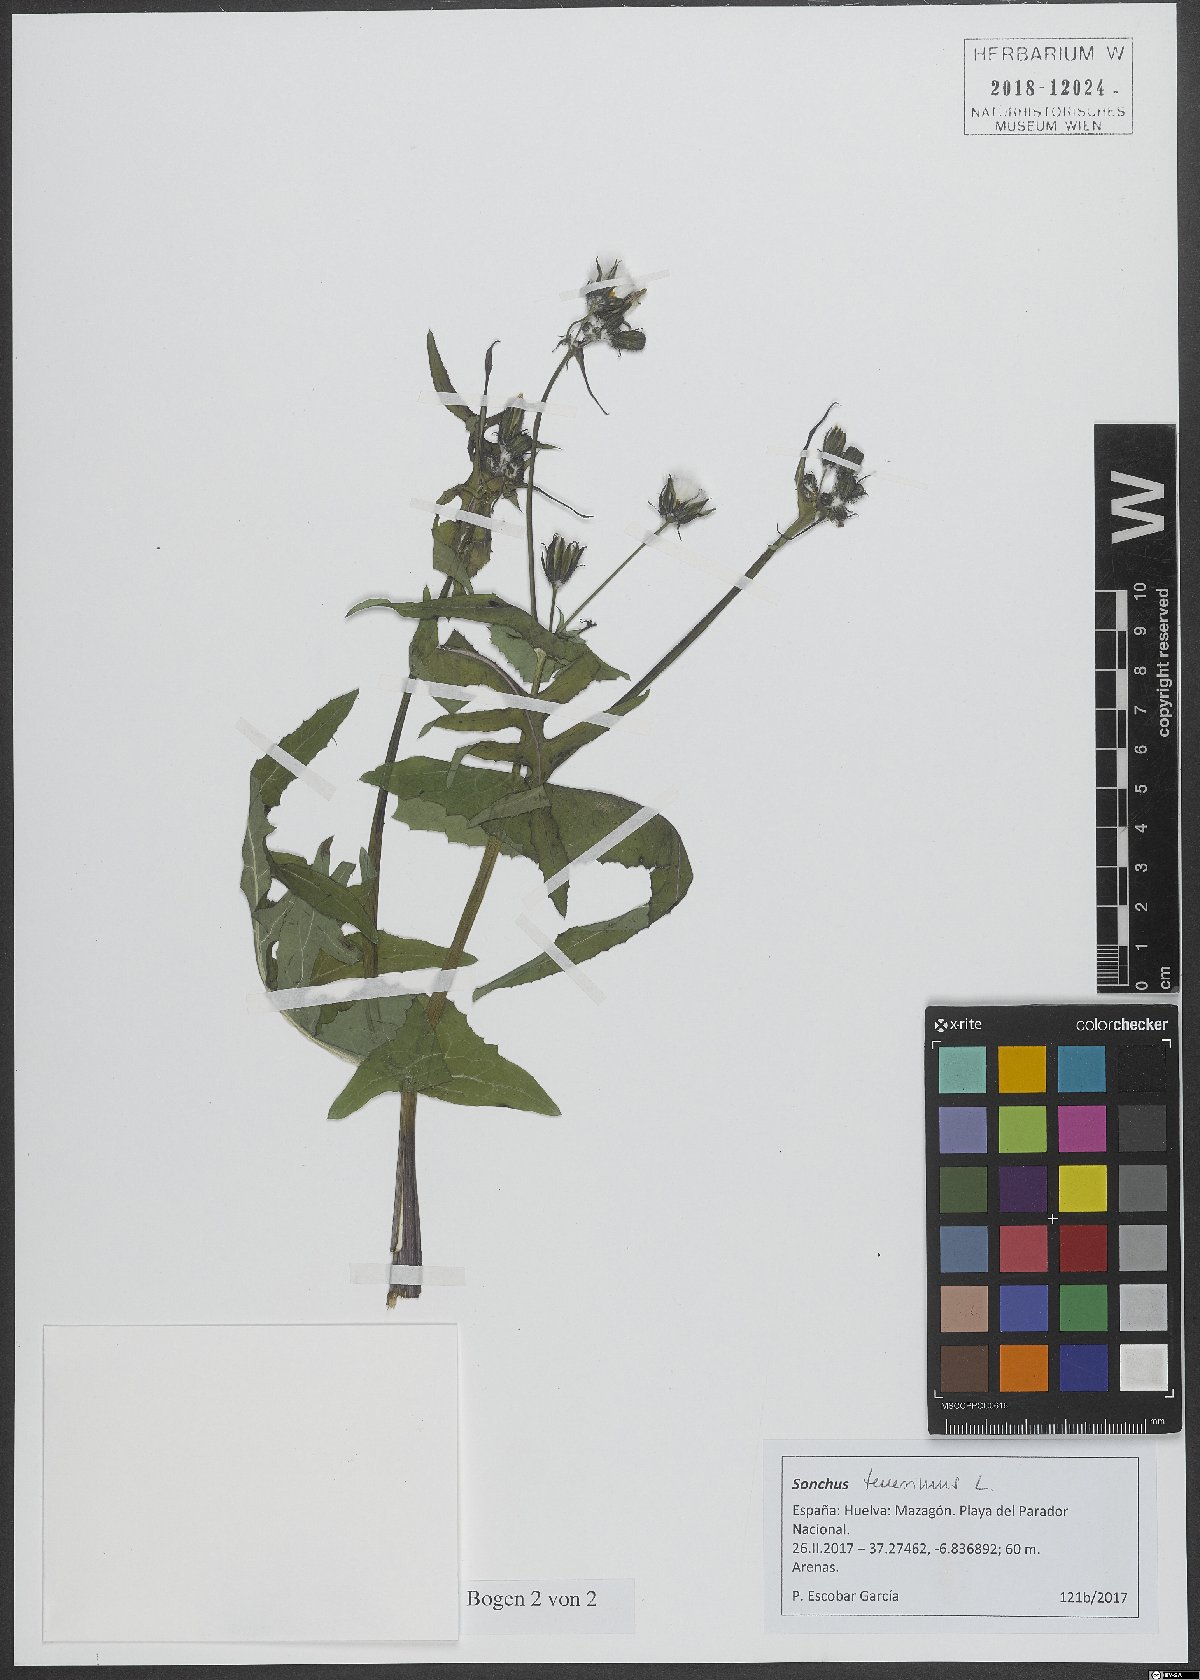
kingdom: Plantae
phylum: Tracheophyta
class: Magnoliopsida
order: Asterales
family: Asteraceae
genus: Sonchus
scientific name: Sonchus tenerrimus
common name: Clammy sowthistle
